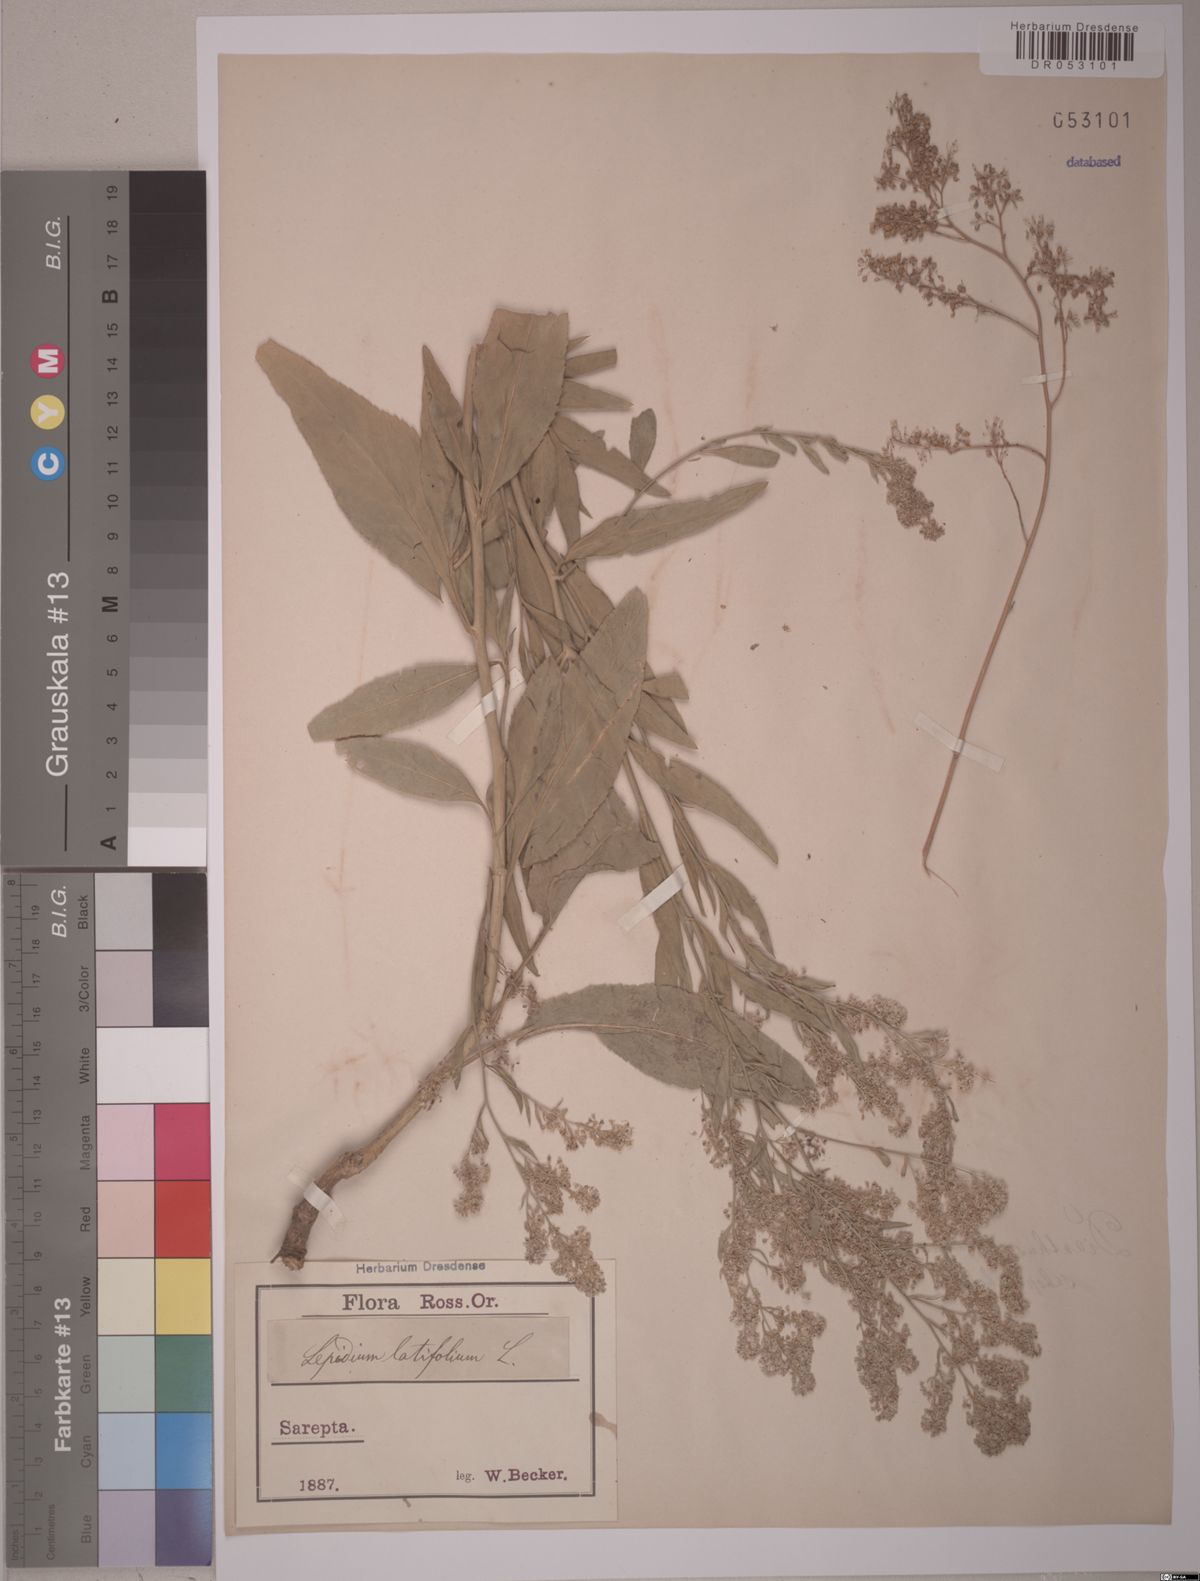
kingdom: Plantae
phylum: Tracheophyta
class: Magnoliopsida
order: Brassicales
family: Brassicaceae
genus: Lepidium
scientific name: Lepidium latifolium
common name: Dittander
